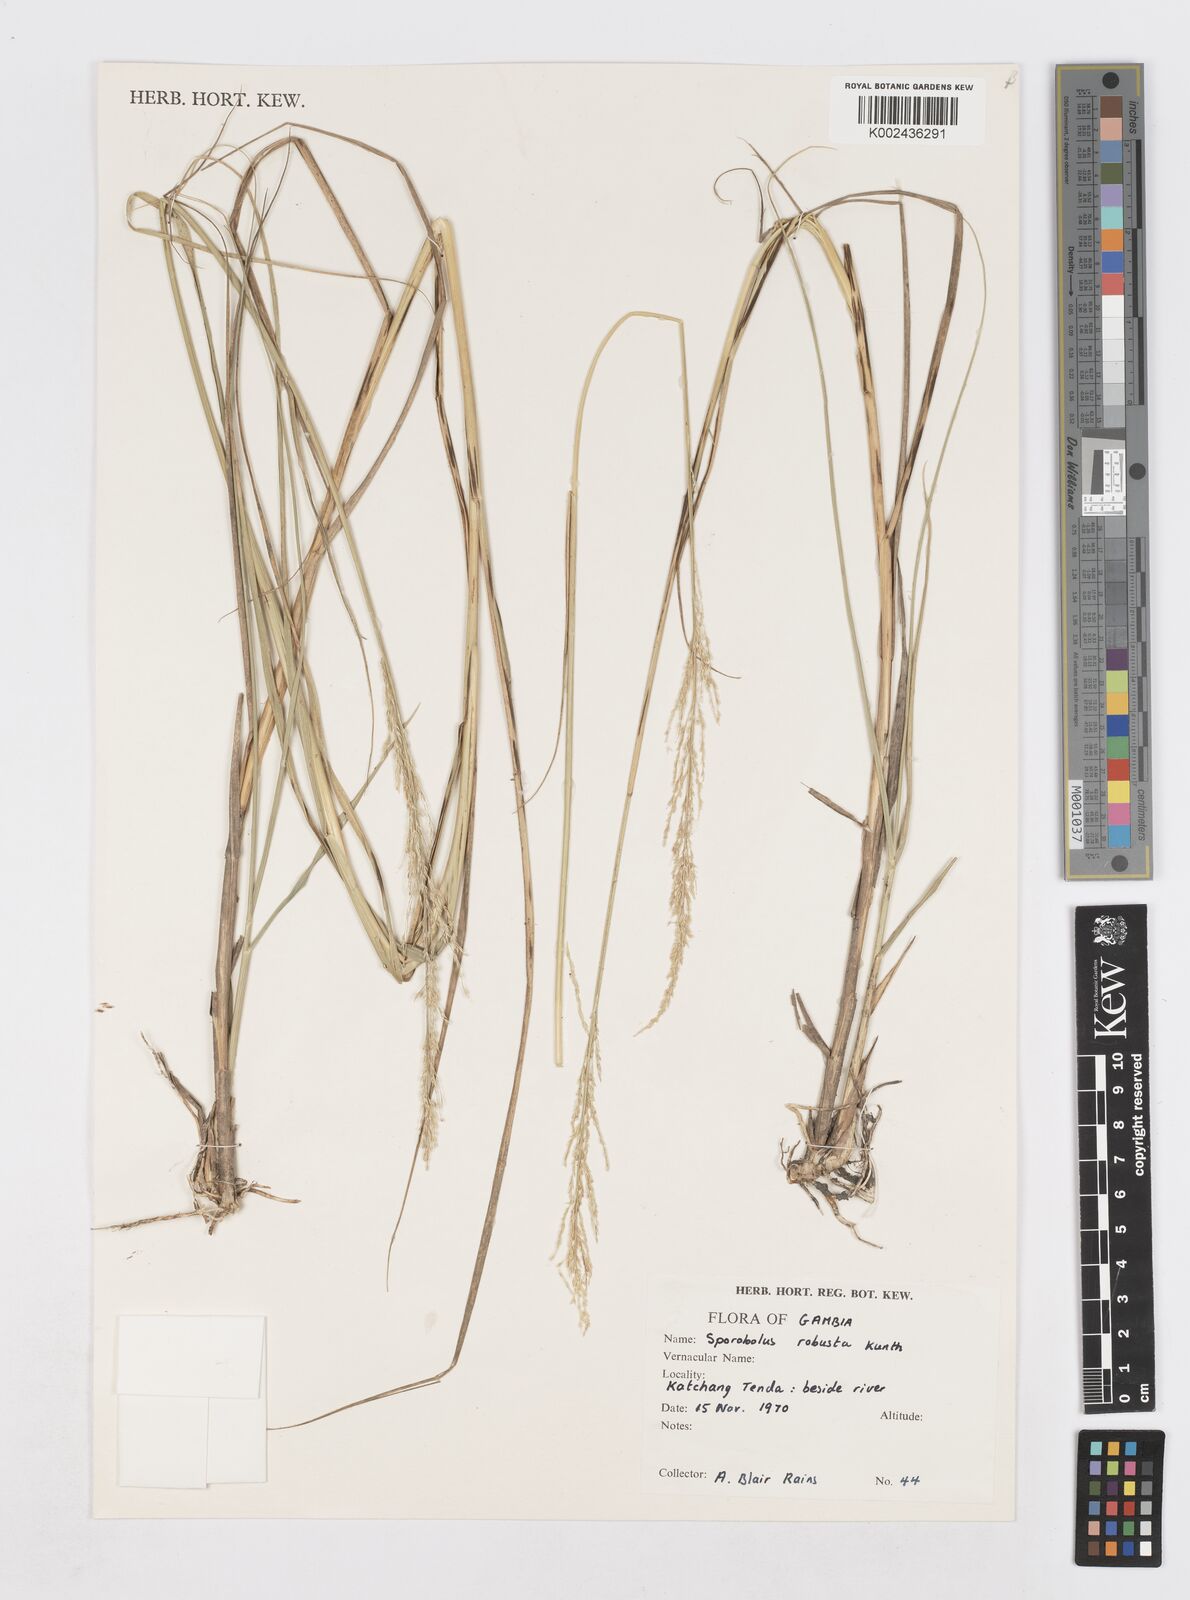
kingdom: Plantae
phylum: Tracheophyta
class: Liliopsida
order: Poales
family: Poaceae
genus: Sporobolus
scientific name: Sporobolus robustus
